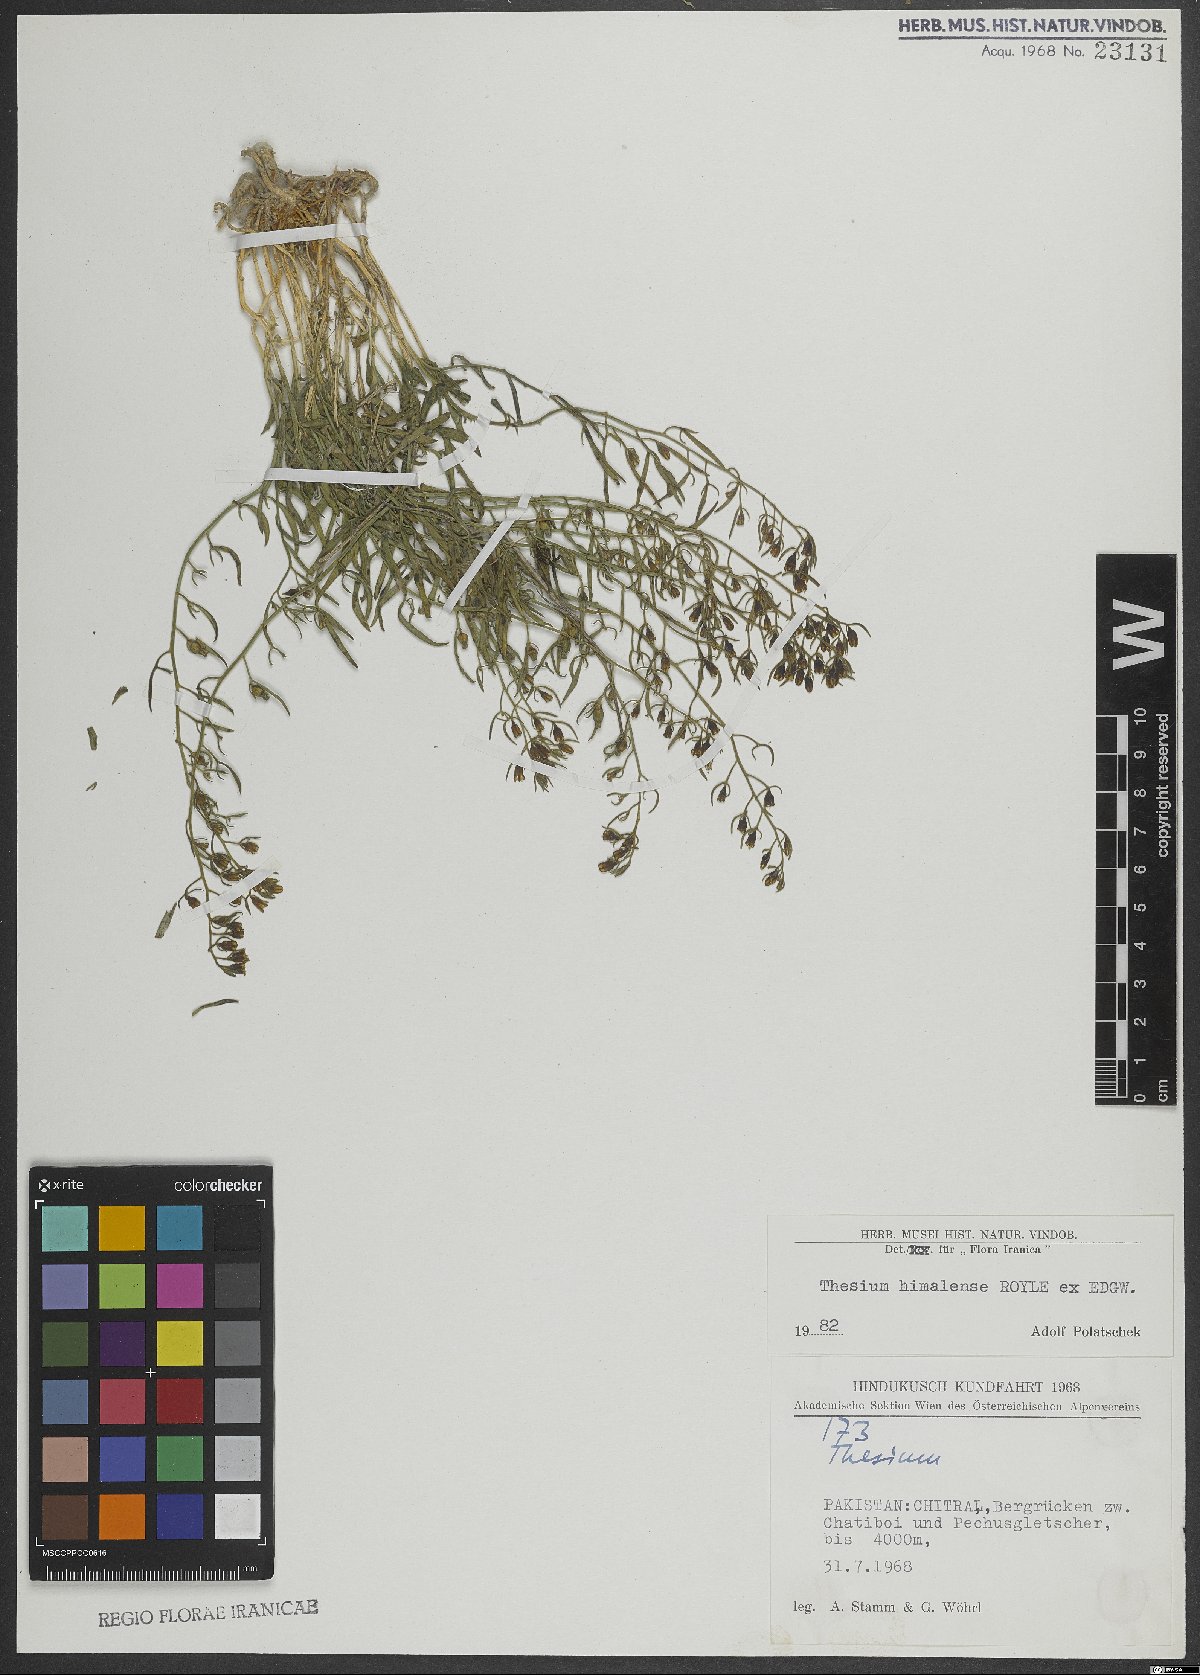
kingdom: Plantae
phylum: Tracheophyta
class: Magnoliopsida
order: Santalales
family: Thesiaceae
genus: Thesium
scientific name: Thesium himalense
